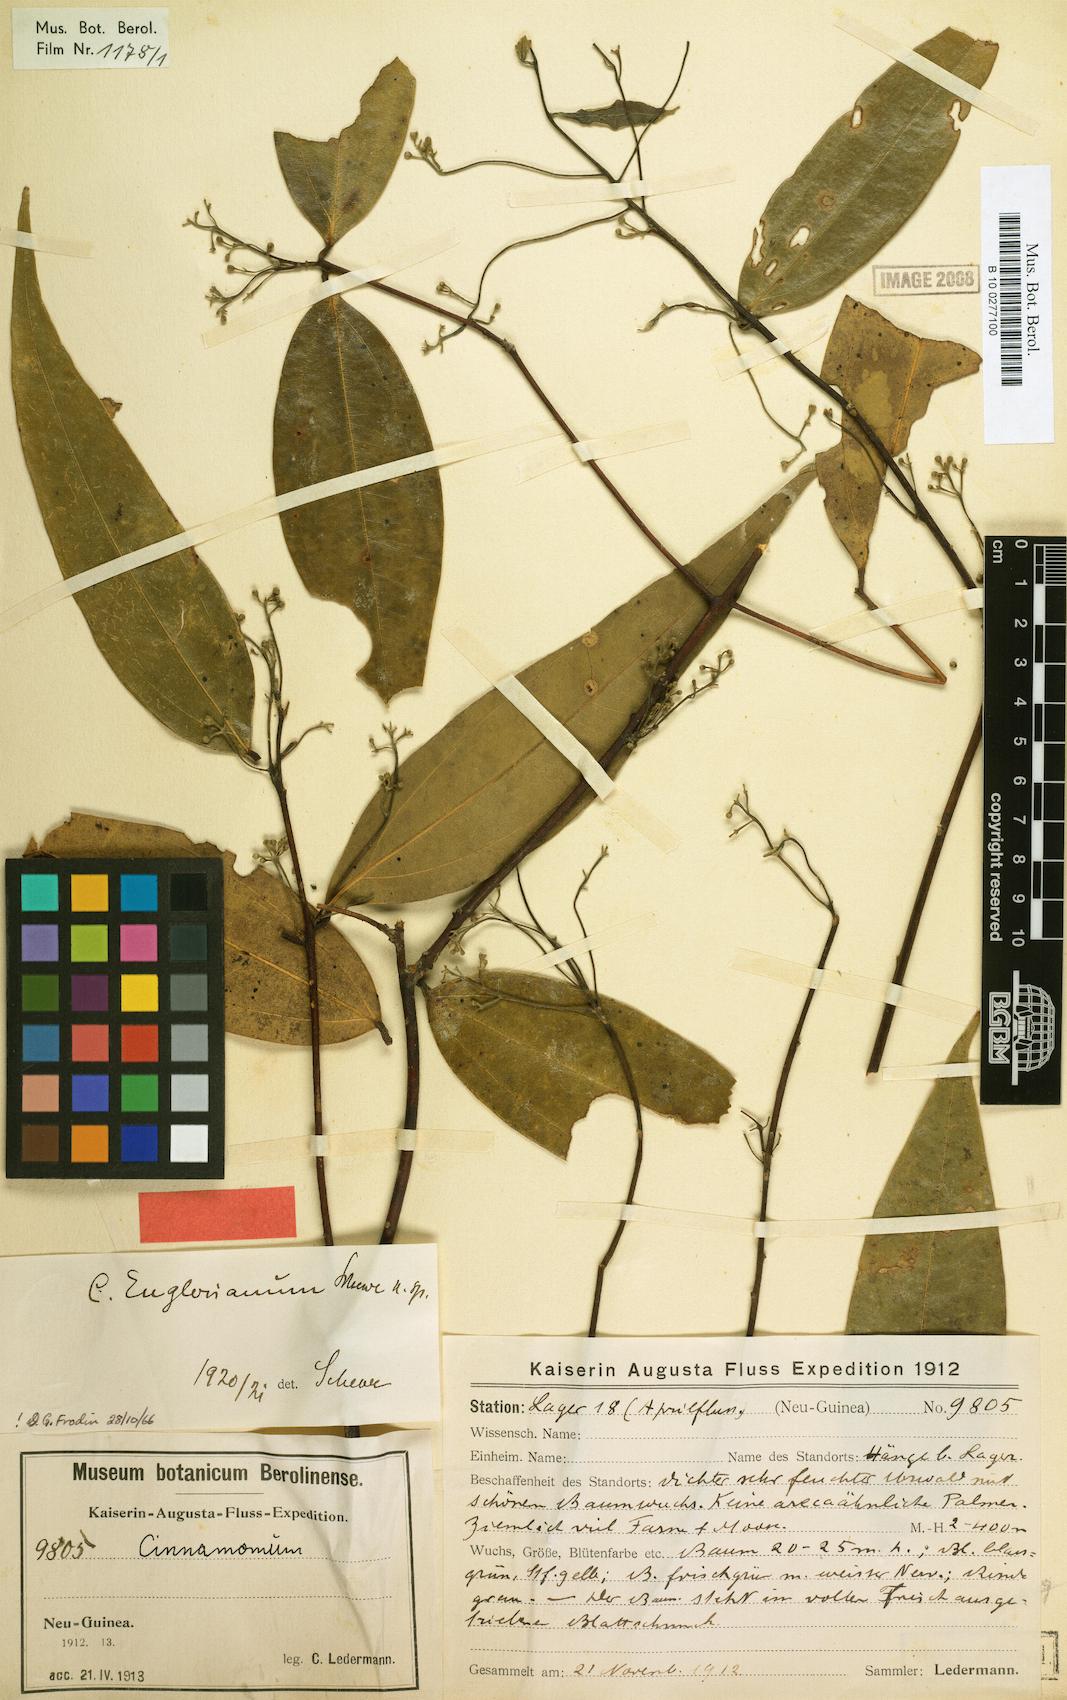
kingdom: Plantae
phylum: Tracheophyta
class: Magnoliopsida
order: Laurales
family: Lauraceae
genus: Cinnamomum
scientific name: Cinnamomum englerianum
